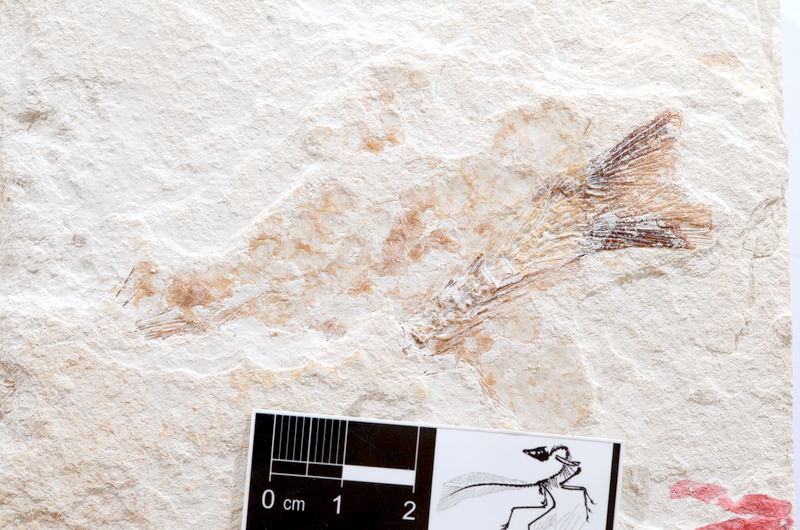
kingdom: Animalia
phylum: Chordata
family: Ascalaboidae
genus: Tharsis
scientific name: Tharsis dubius
